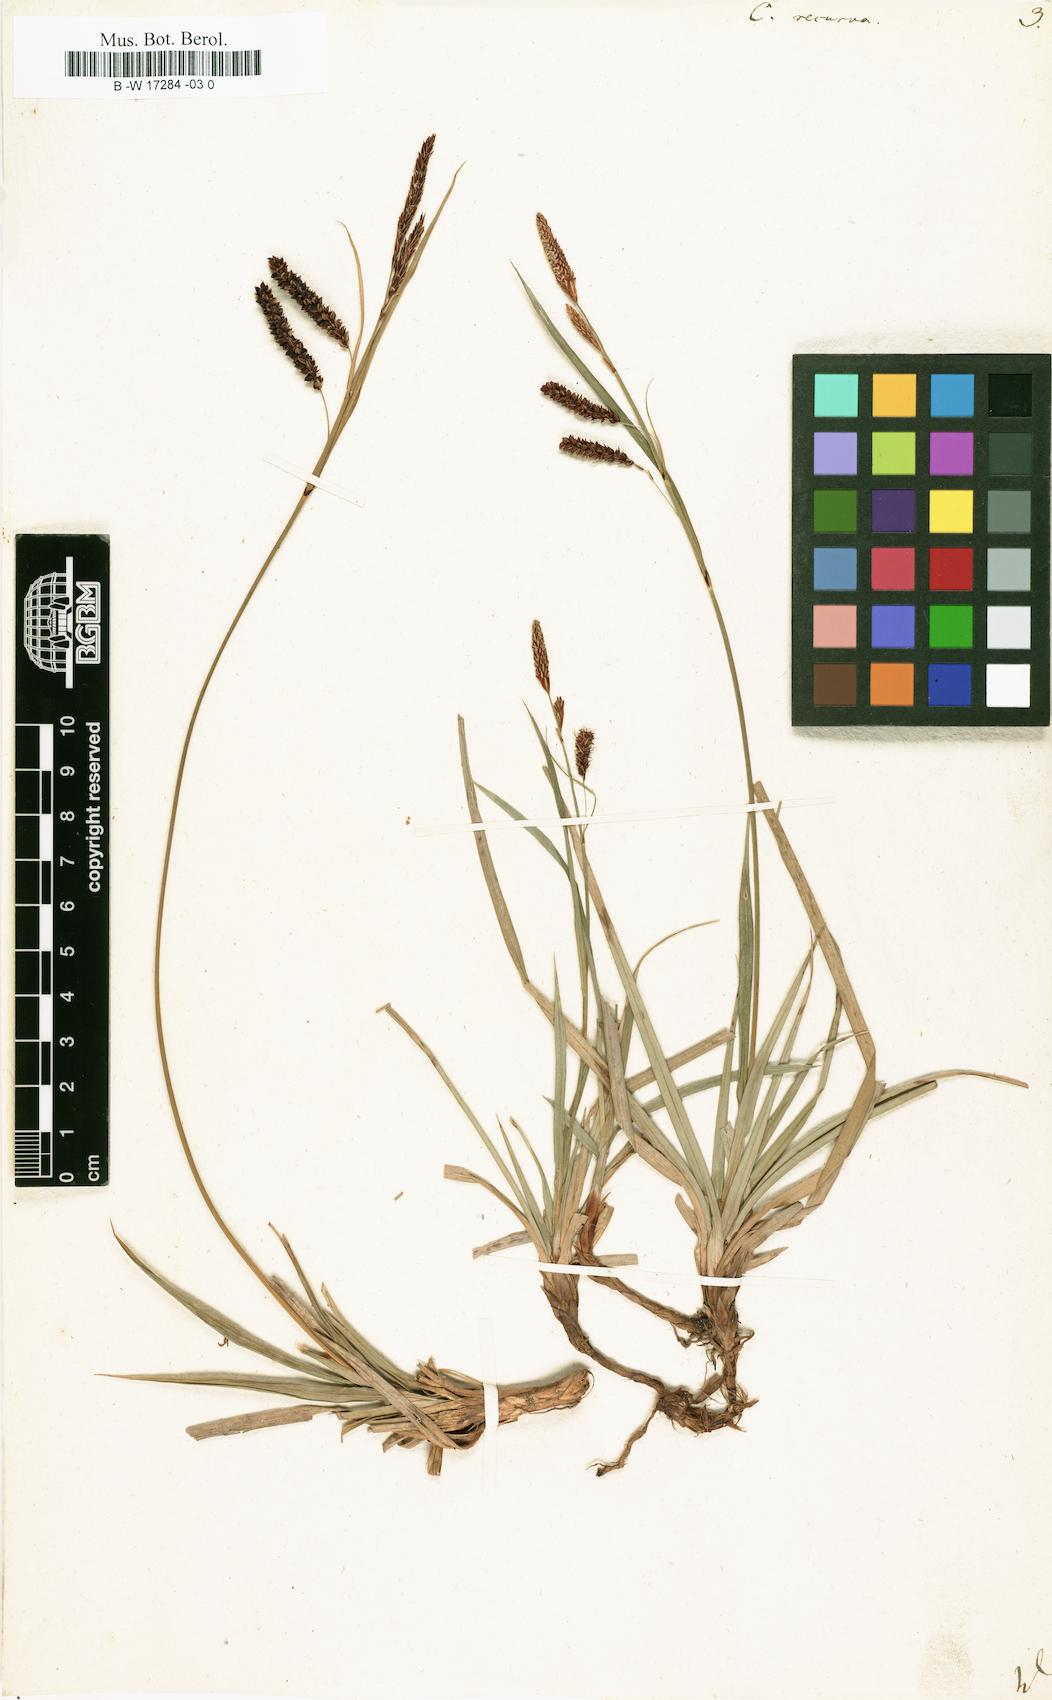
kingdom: Plantae
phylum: Tracheophyta
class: Liliopsida
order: Poales
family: Cyperaceae
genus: Carex
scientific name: Carex flacca
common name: Glaucous sedge
